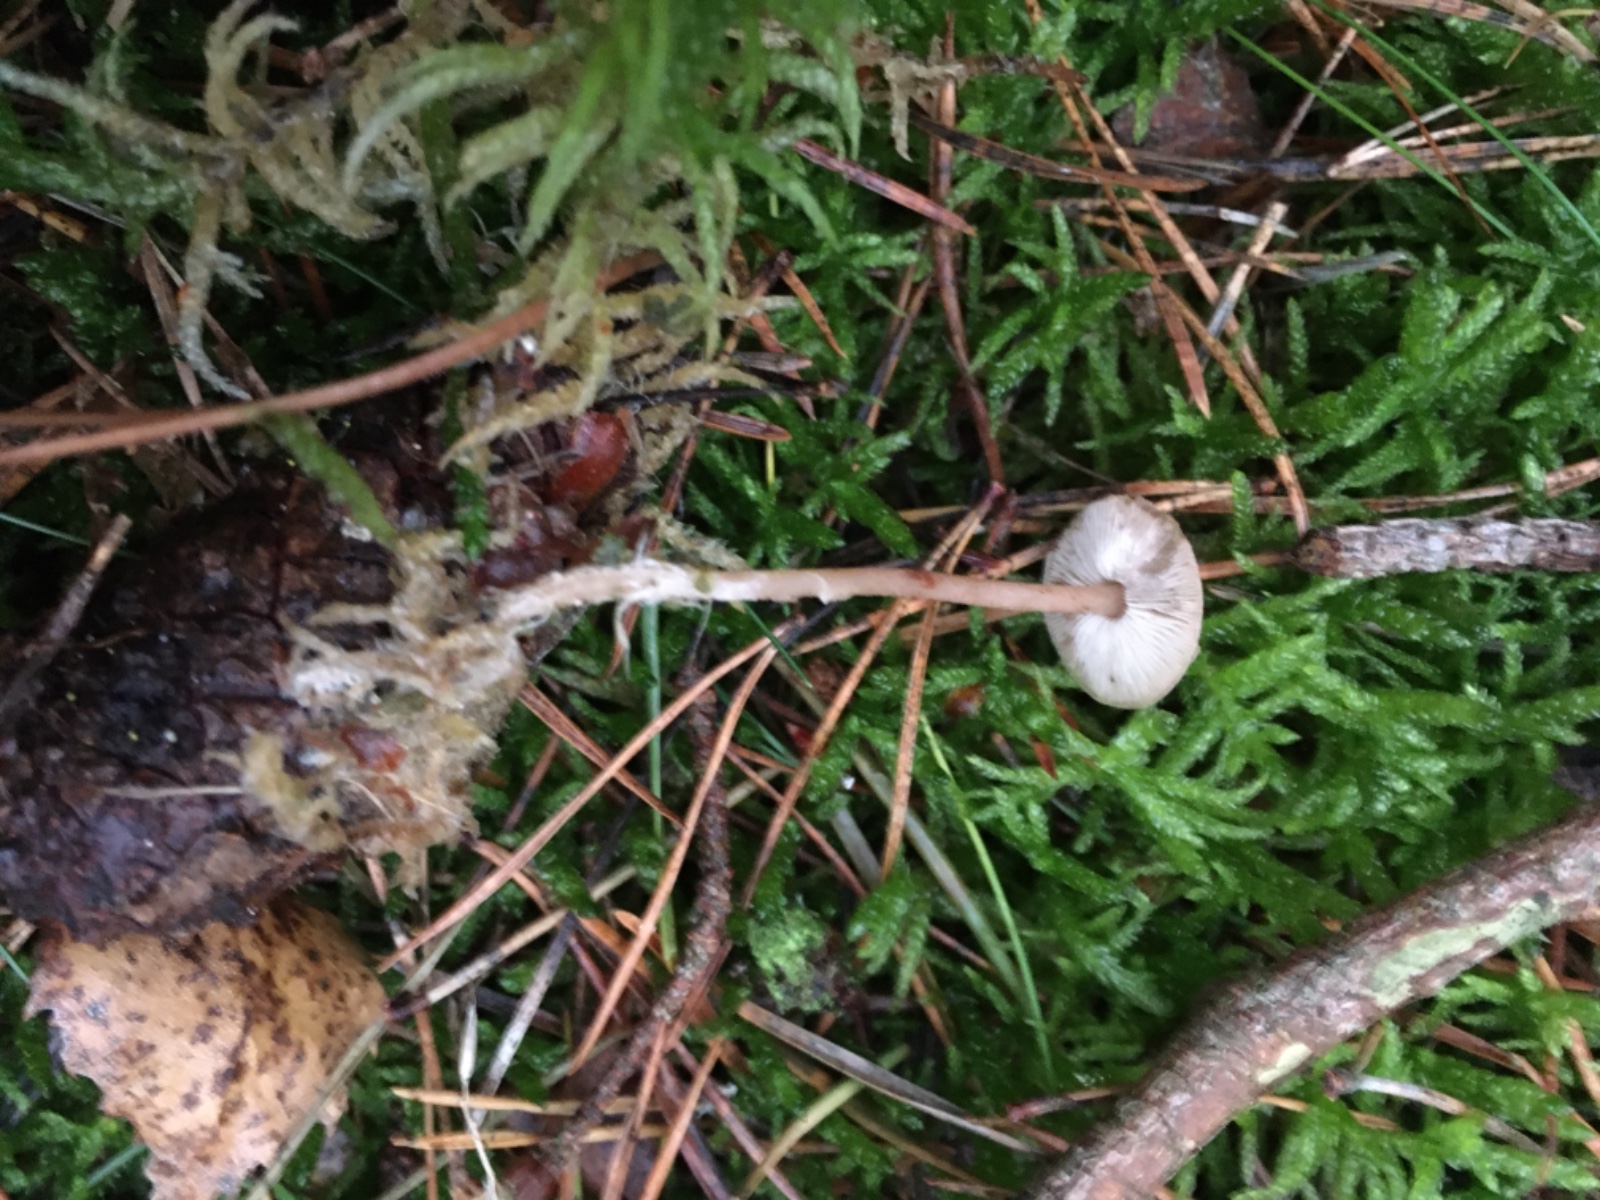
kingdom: Fungi
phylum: Basidiomycota
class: Agaricomycetes
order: Agaricales
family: Marasmiaceae
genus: Baeospora
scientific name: Baeospora myosura
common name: koglebruskhat
